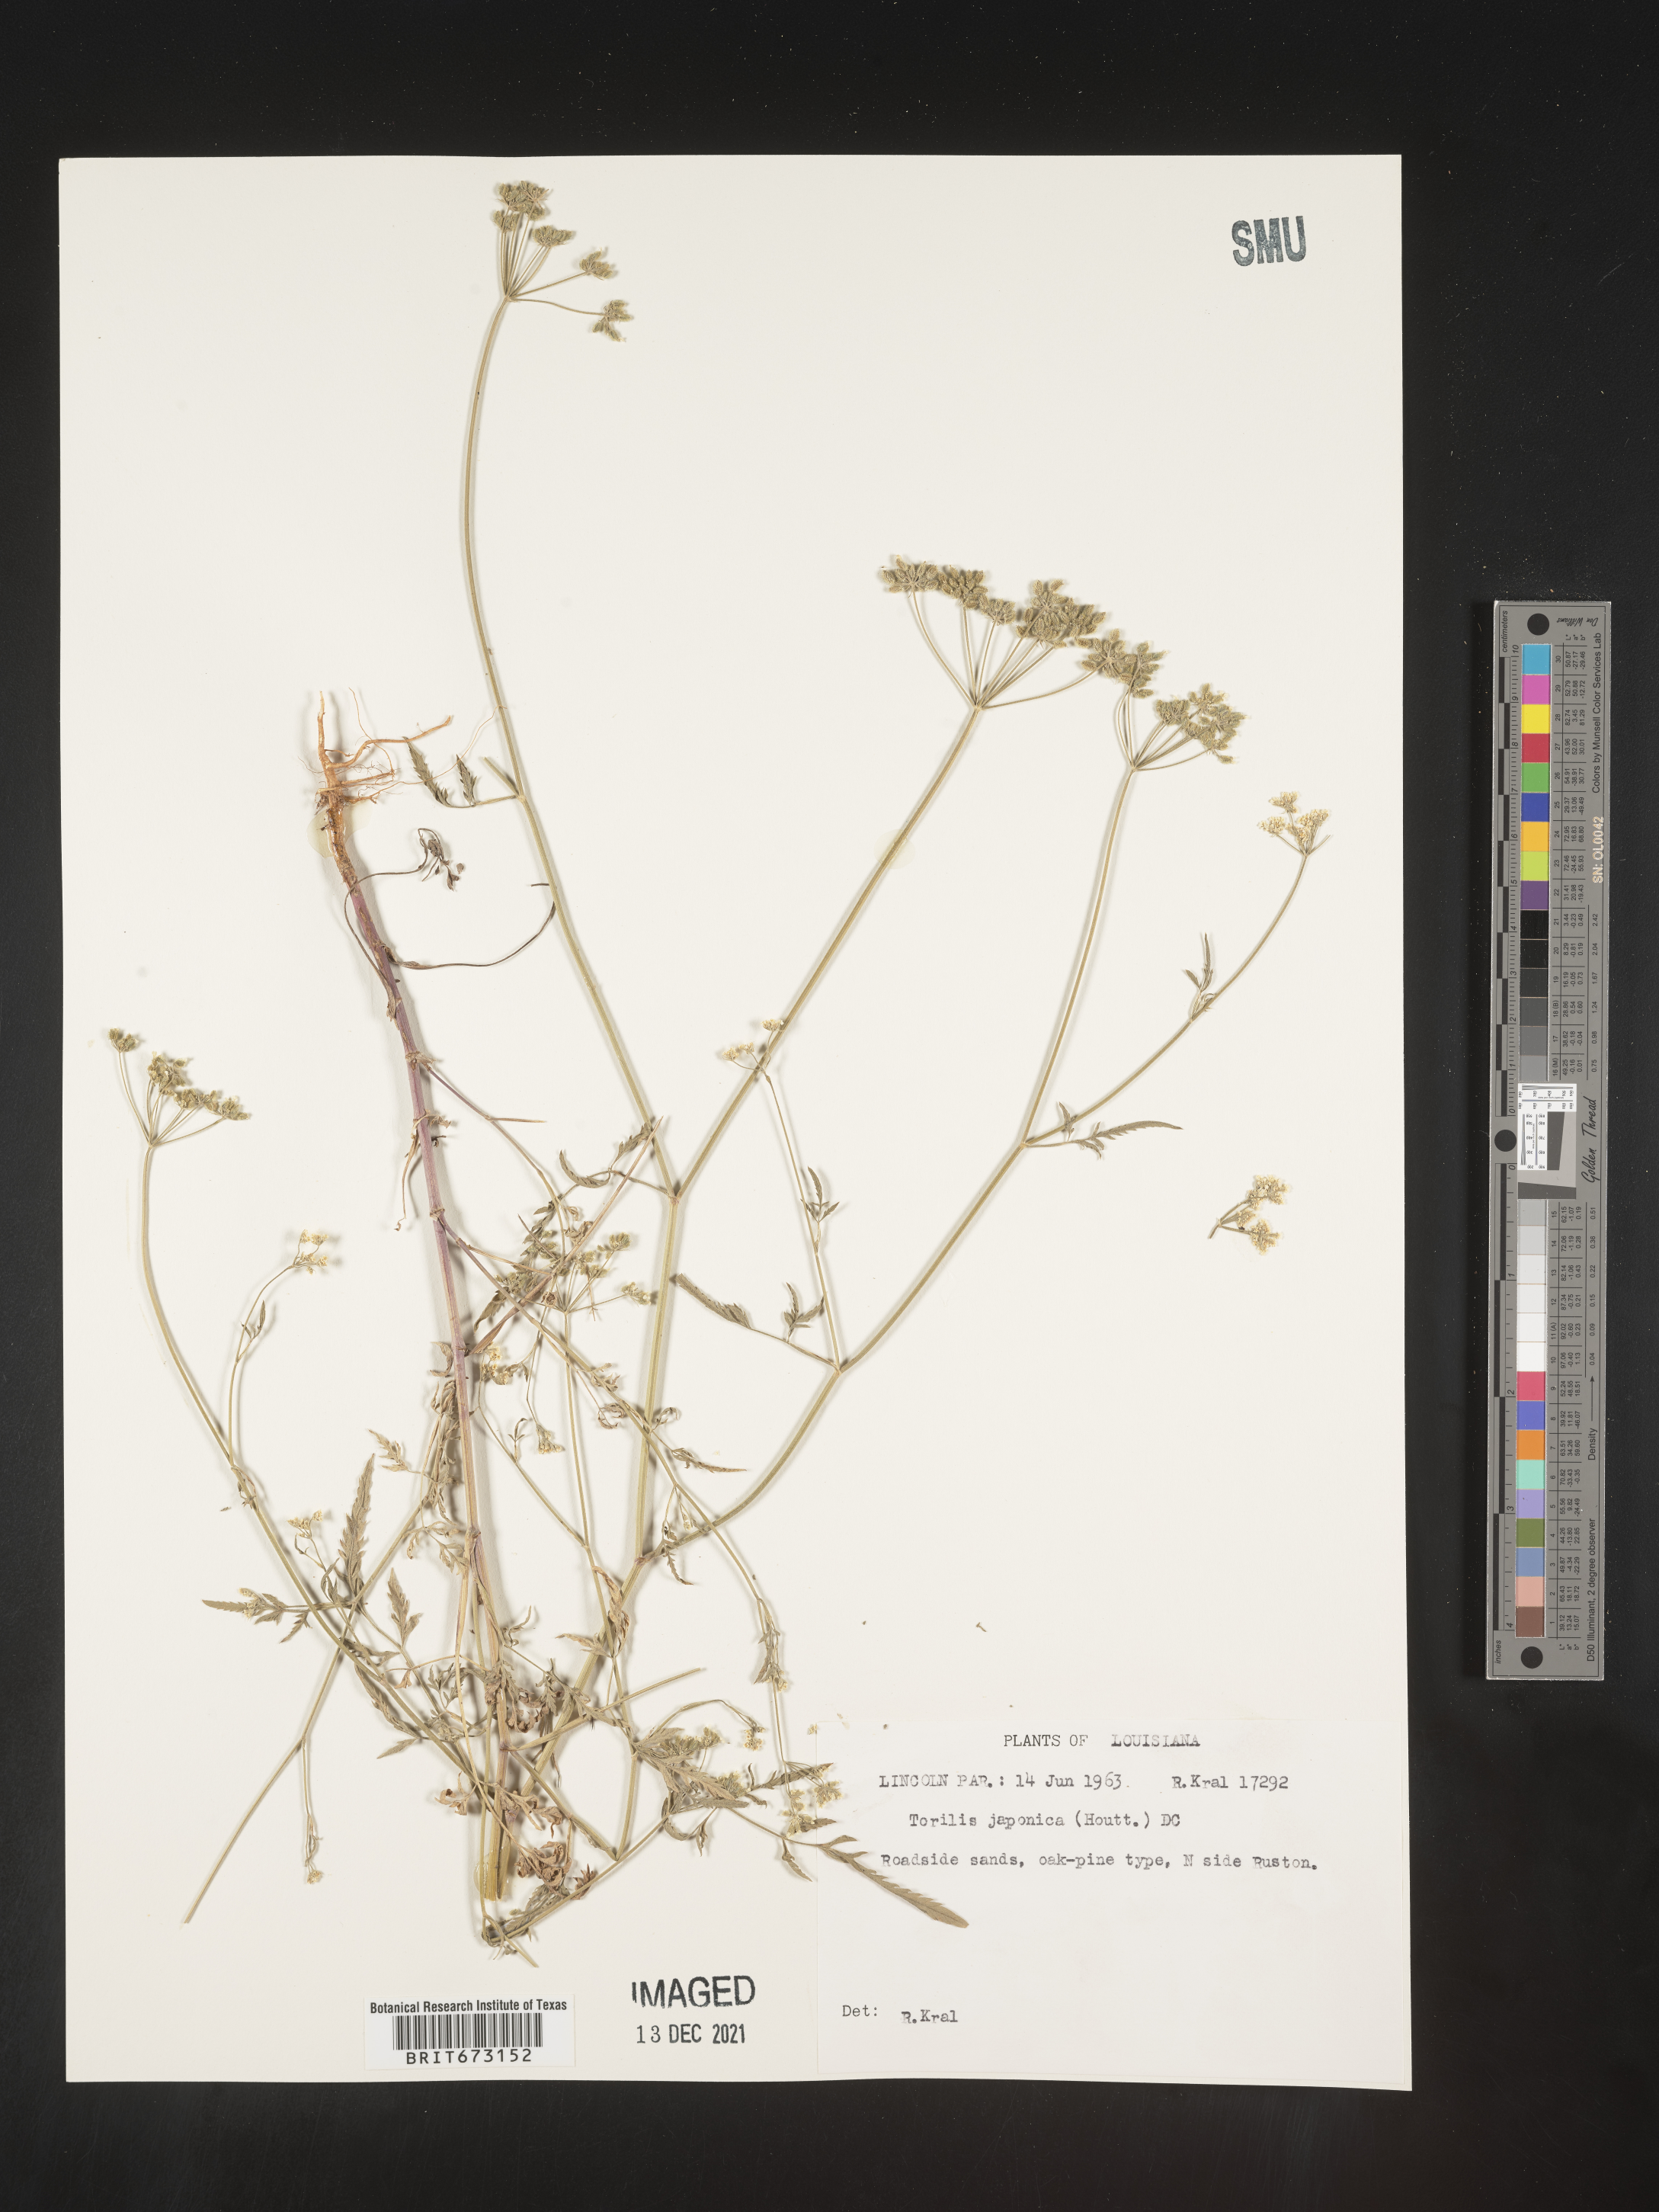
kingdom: Plantae
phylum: Tracheophyta
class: Magnoliopsida
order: Apiales
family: Apiaceae
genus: Torilis
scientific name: Torilis arvensis
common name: Spreading hedge-parsley
